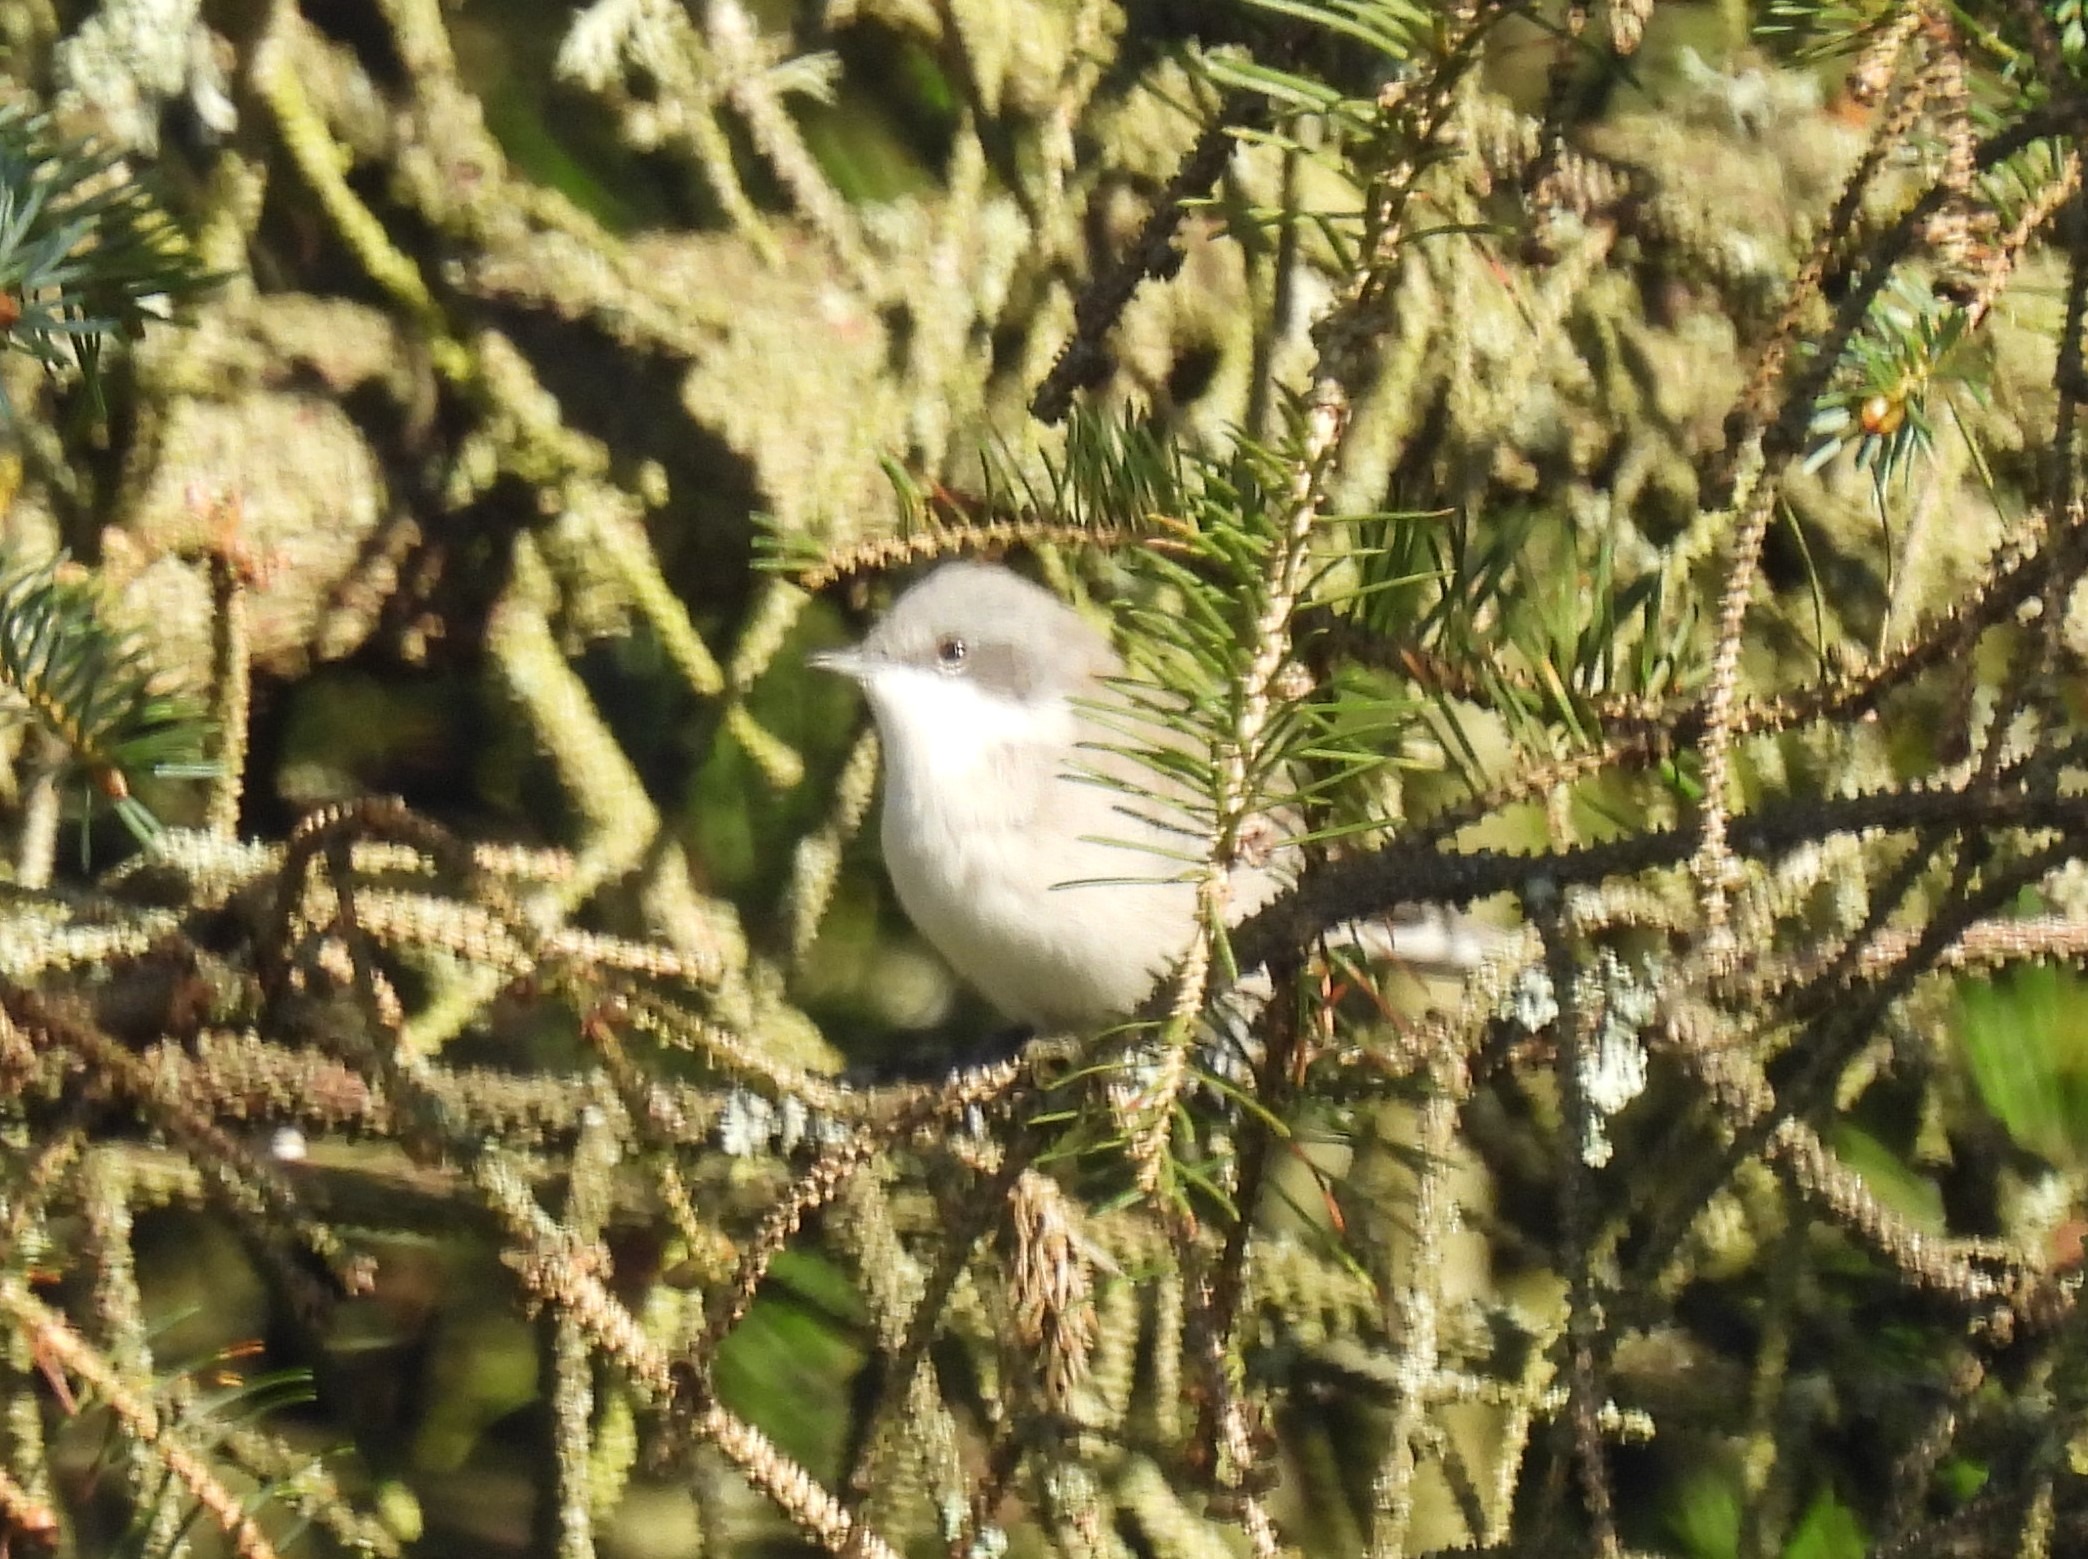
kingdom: Animalia
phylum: Chordata
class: Aves
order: Passeriformes
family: Sylviidae
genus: Sylvia
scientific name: Sylvia curruca
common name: Gærdesanger
